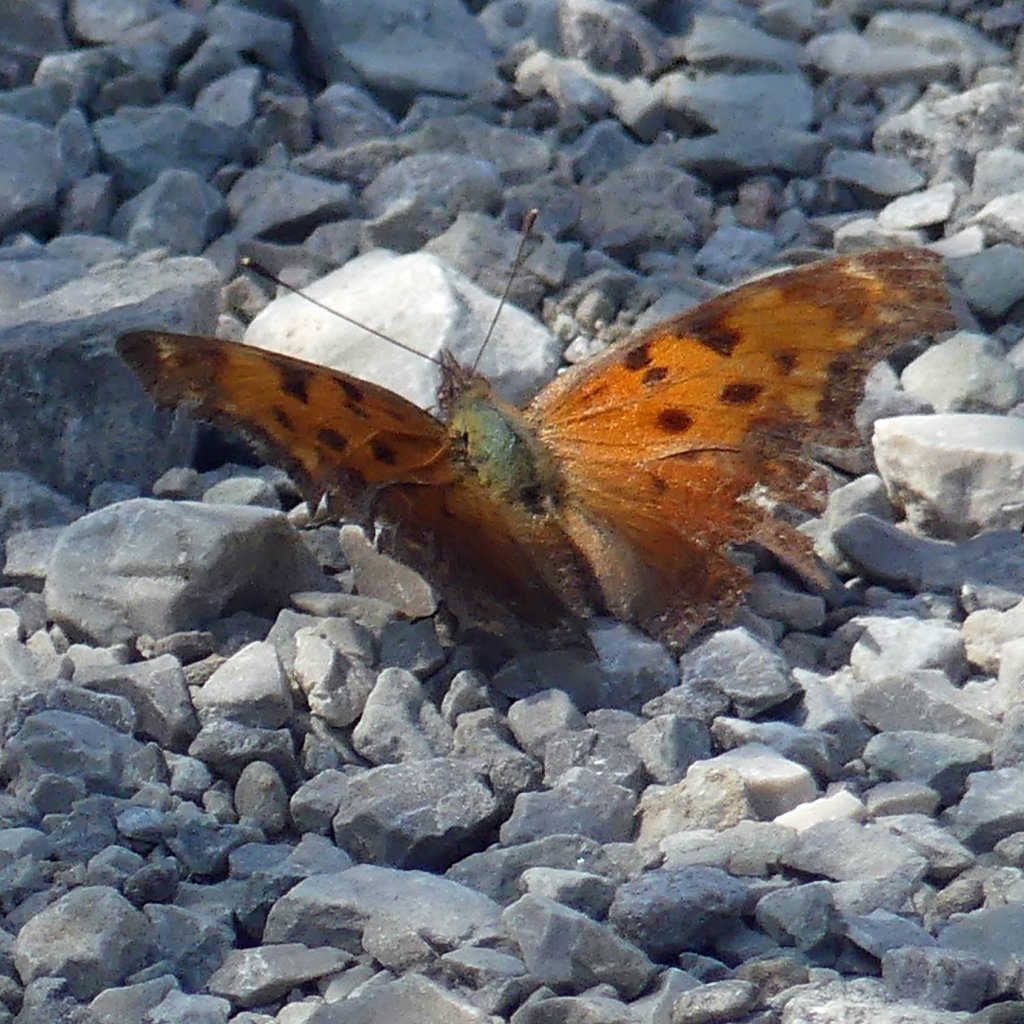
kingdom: Animalia
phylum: Arthropoda
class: Insecta
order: Lepidoptera
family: Nymphalidae
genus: Polygonia
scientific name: Polygonia progne
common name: Gray Comma
